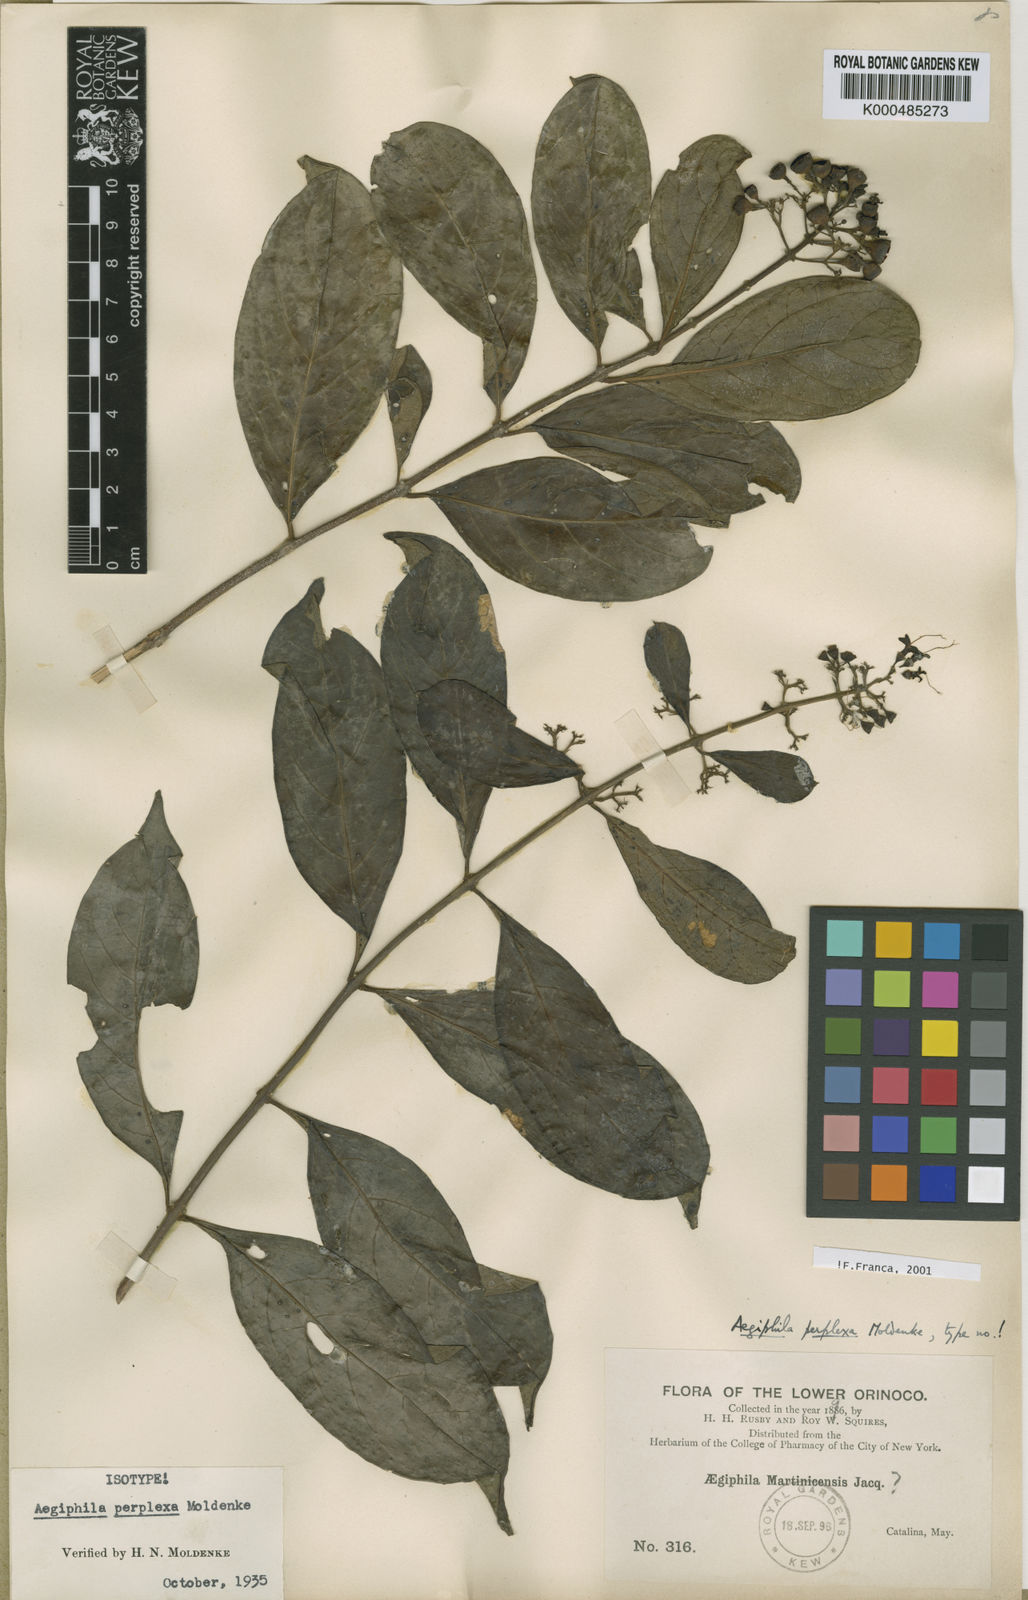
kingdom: Plantae
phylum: Tracheophyta
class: Magnoliopsida
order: Lamiales
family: Lamiaceae
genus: Aegiphila
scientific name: Aegiphila perplexa
